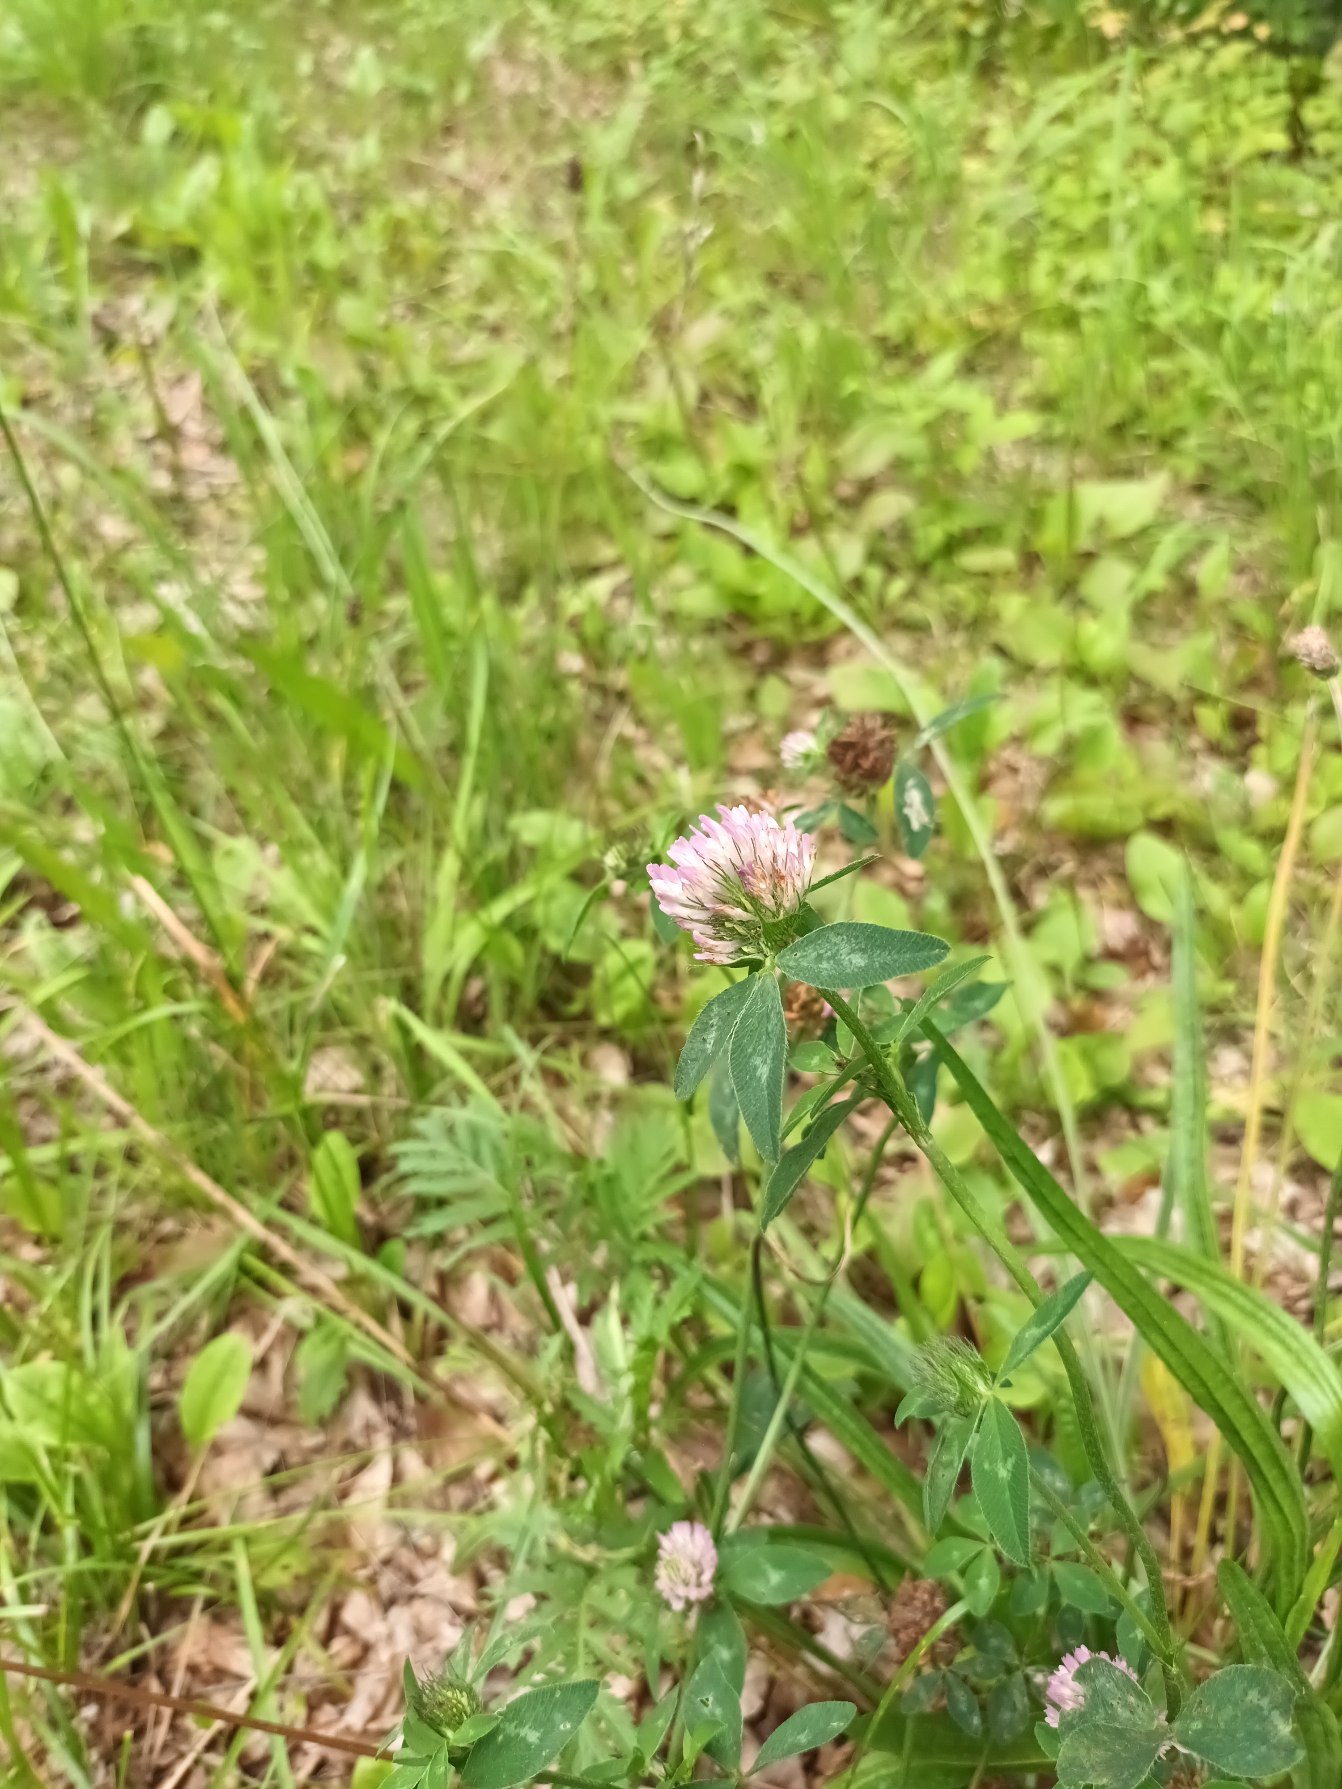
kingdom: Plantae
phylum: Tracheophyta
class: Magnoliopsida
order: Fabales
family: Fabaceae
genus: Trifolium
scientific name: Trifolium pratense
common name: Rød-kløver
